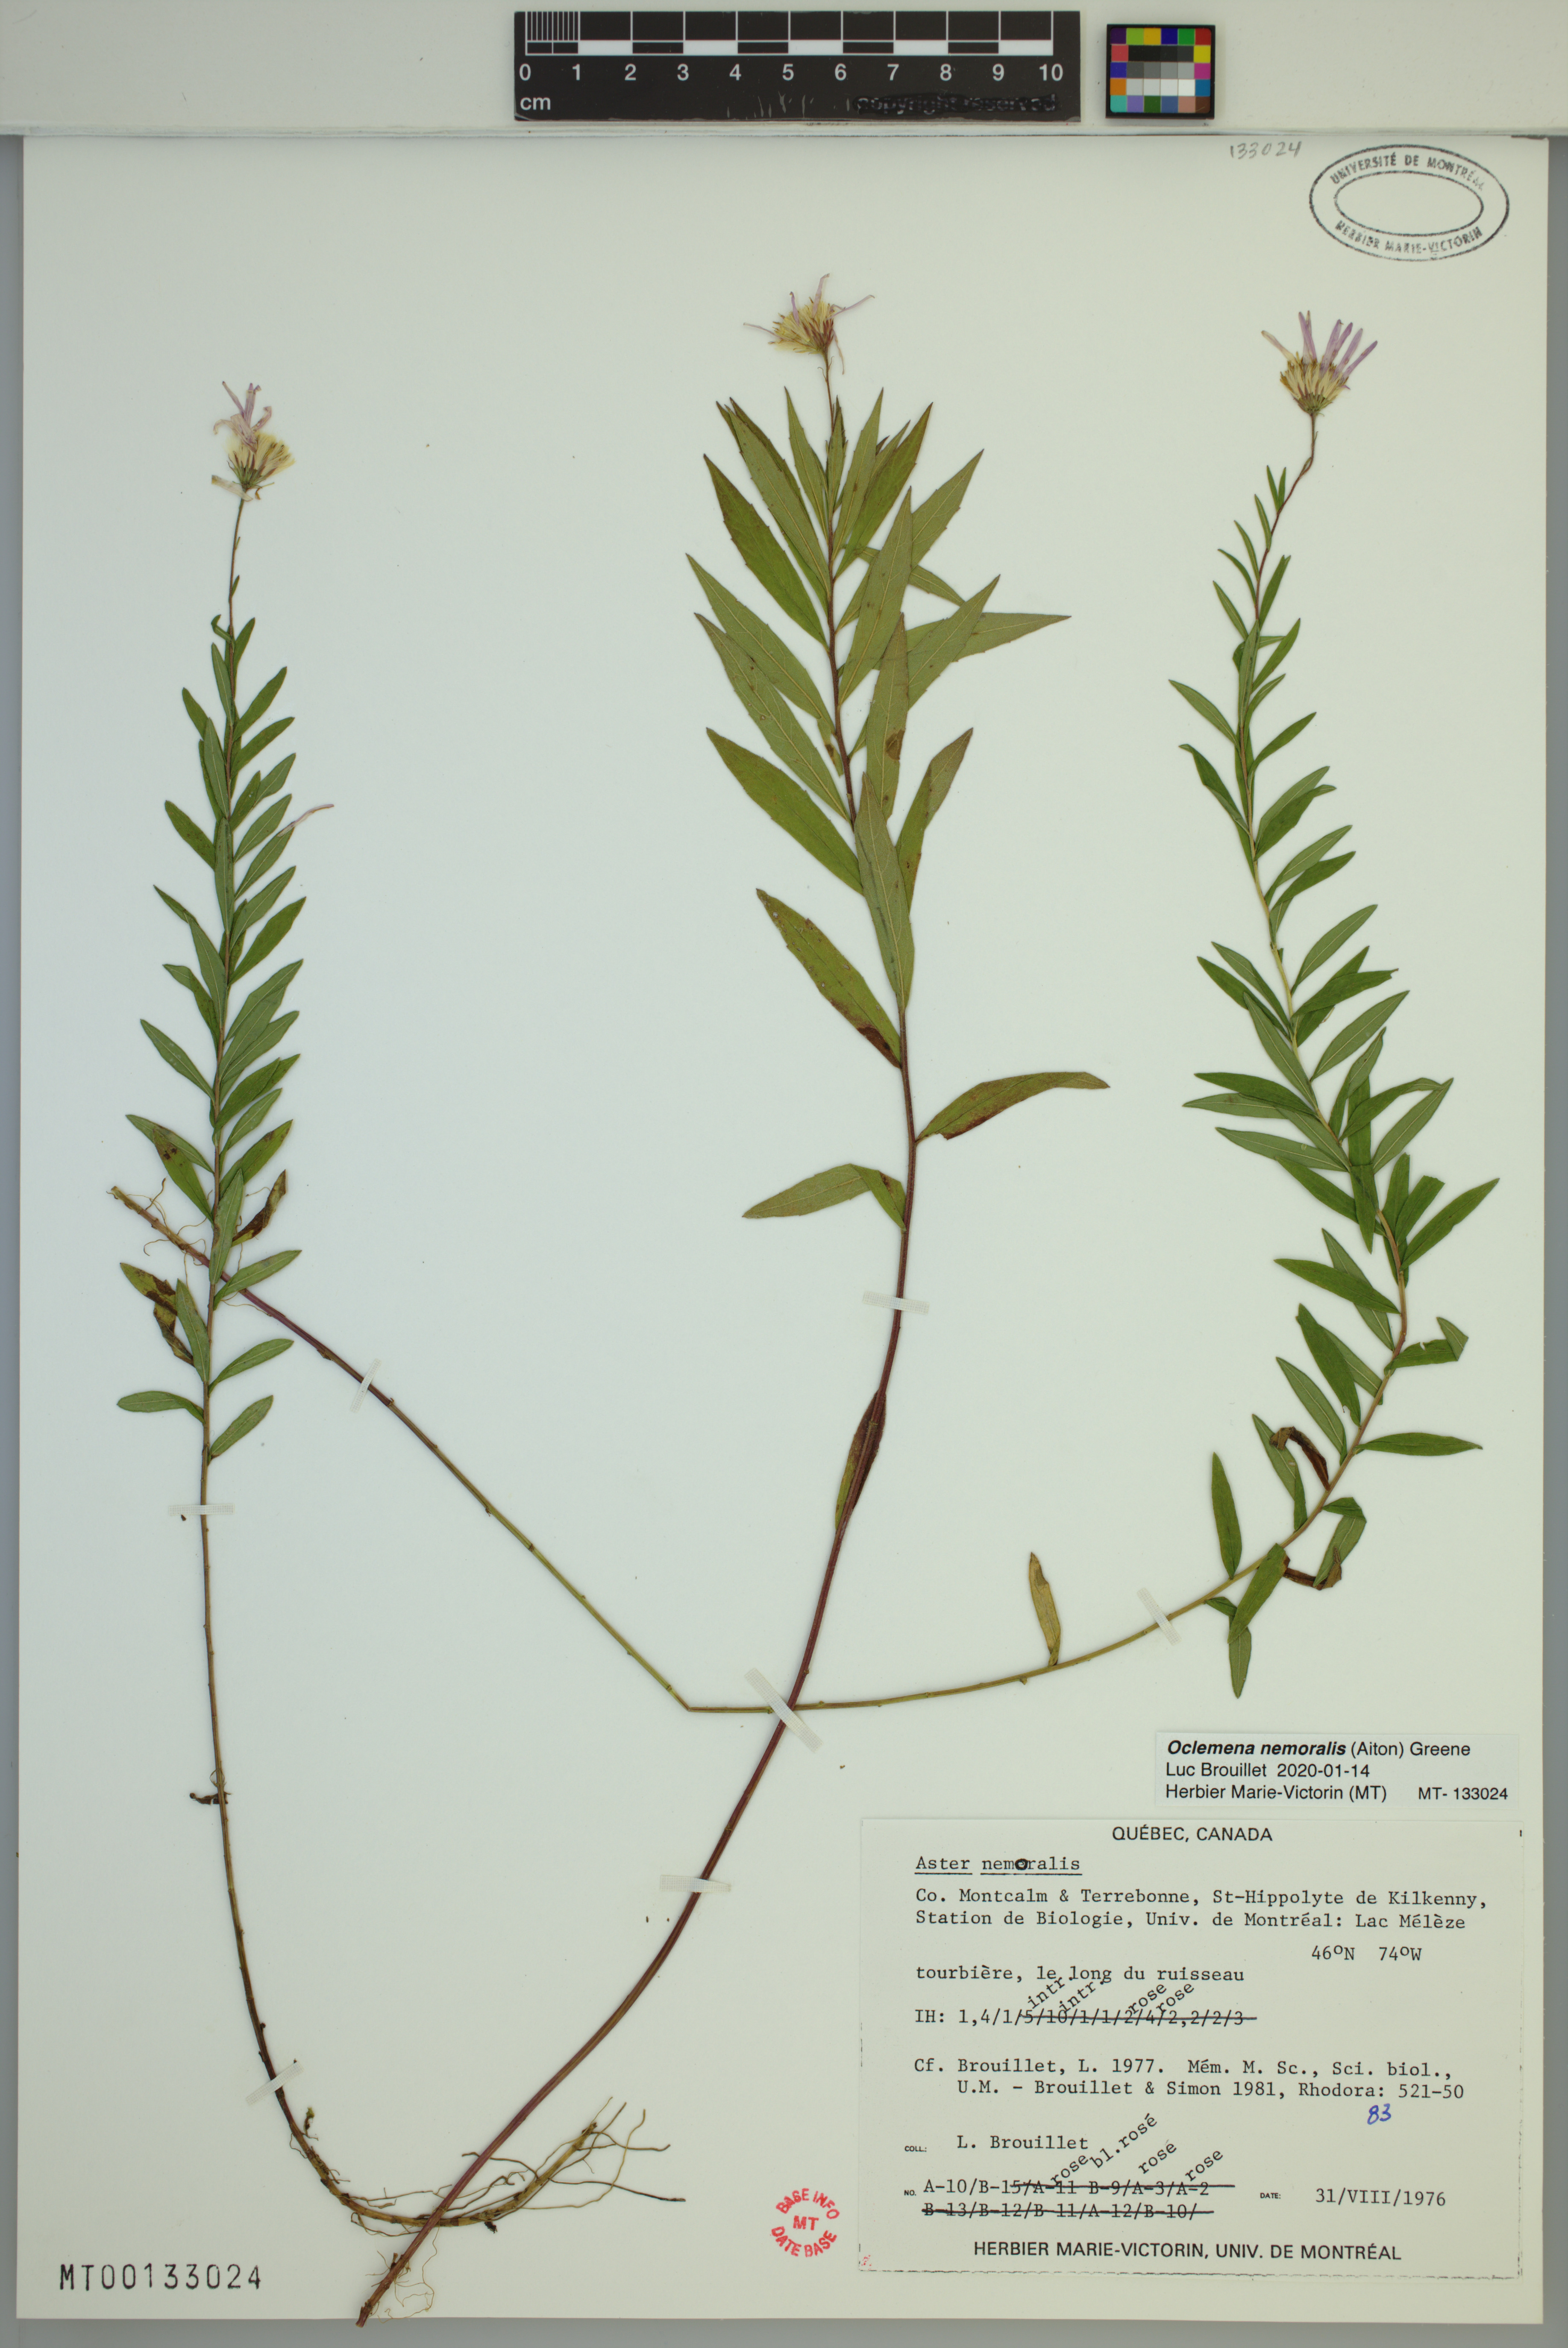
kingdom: Plantae
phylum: Tracheophyta
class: Magnoliopsida
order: Asterales
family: Asteraceae
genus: Oclemena
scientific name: Oclemena nemoralis
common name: Bog aster
